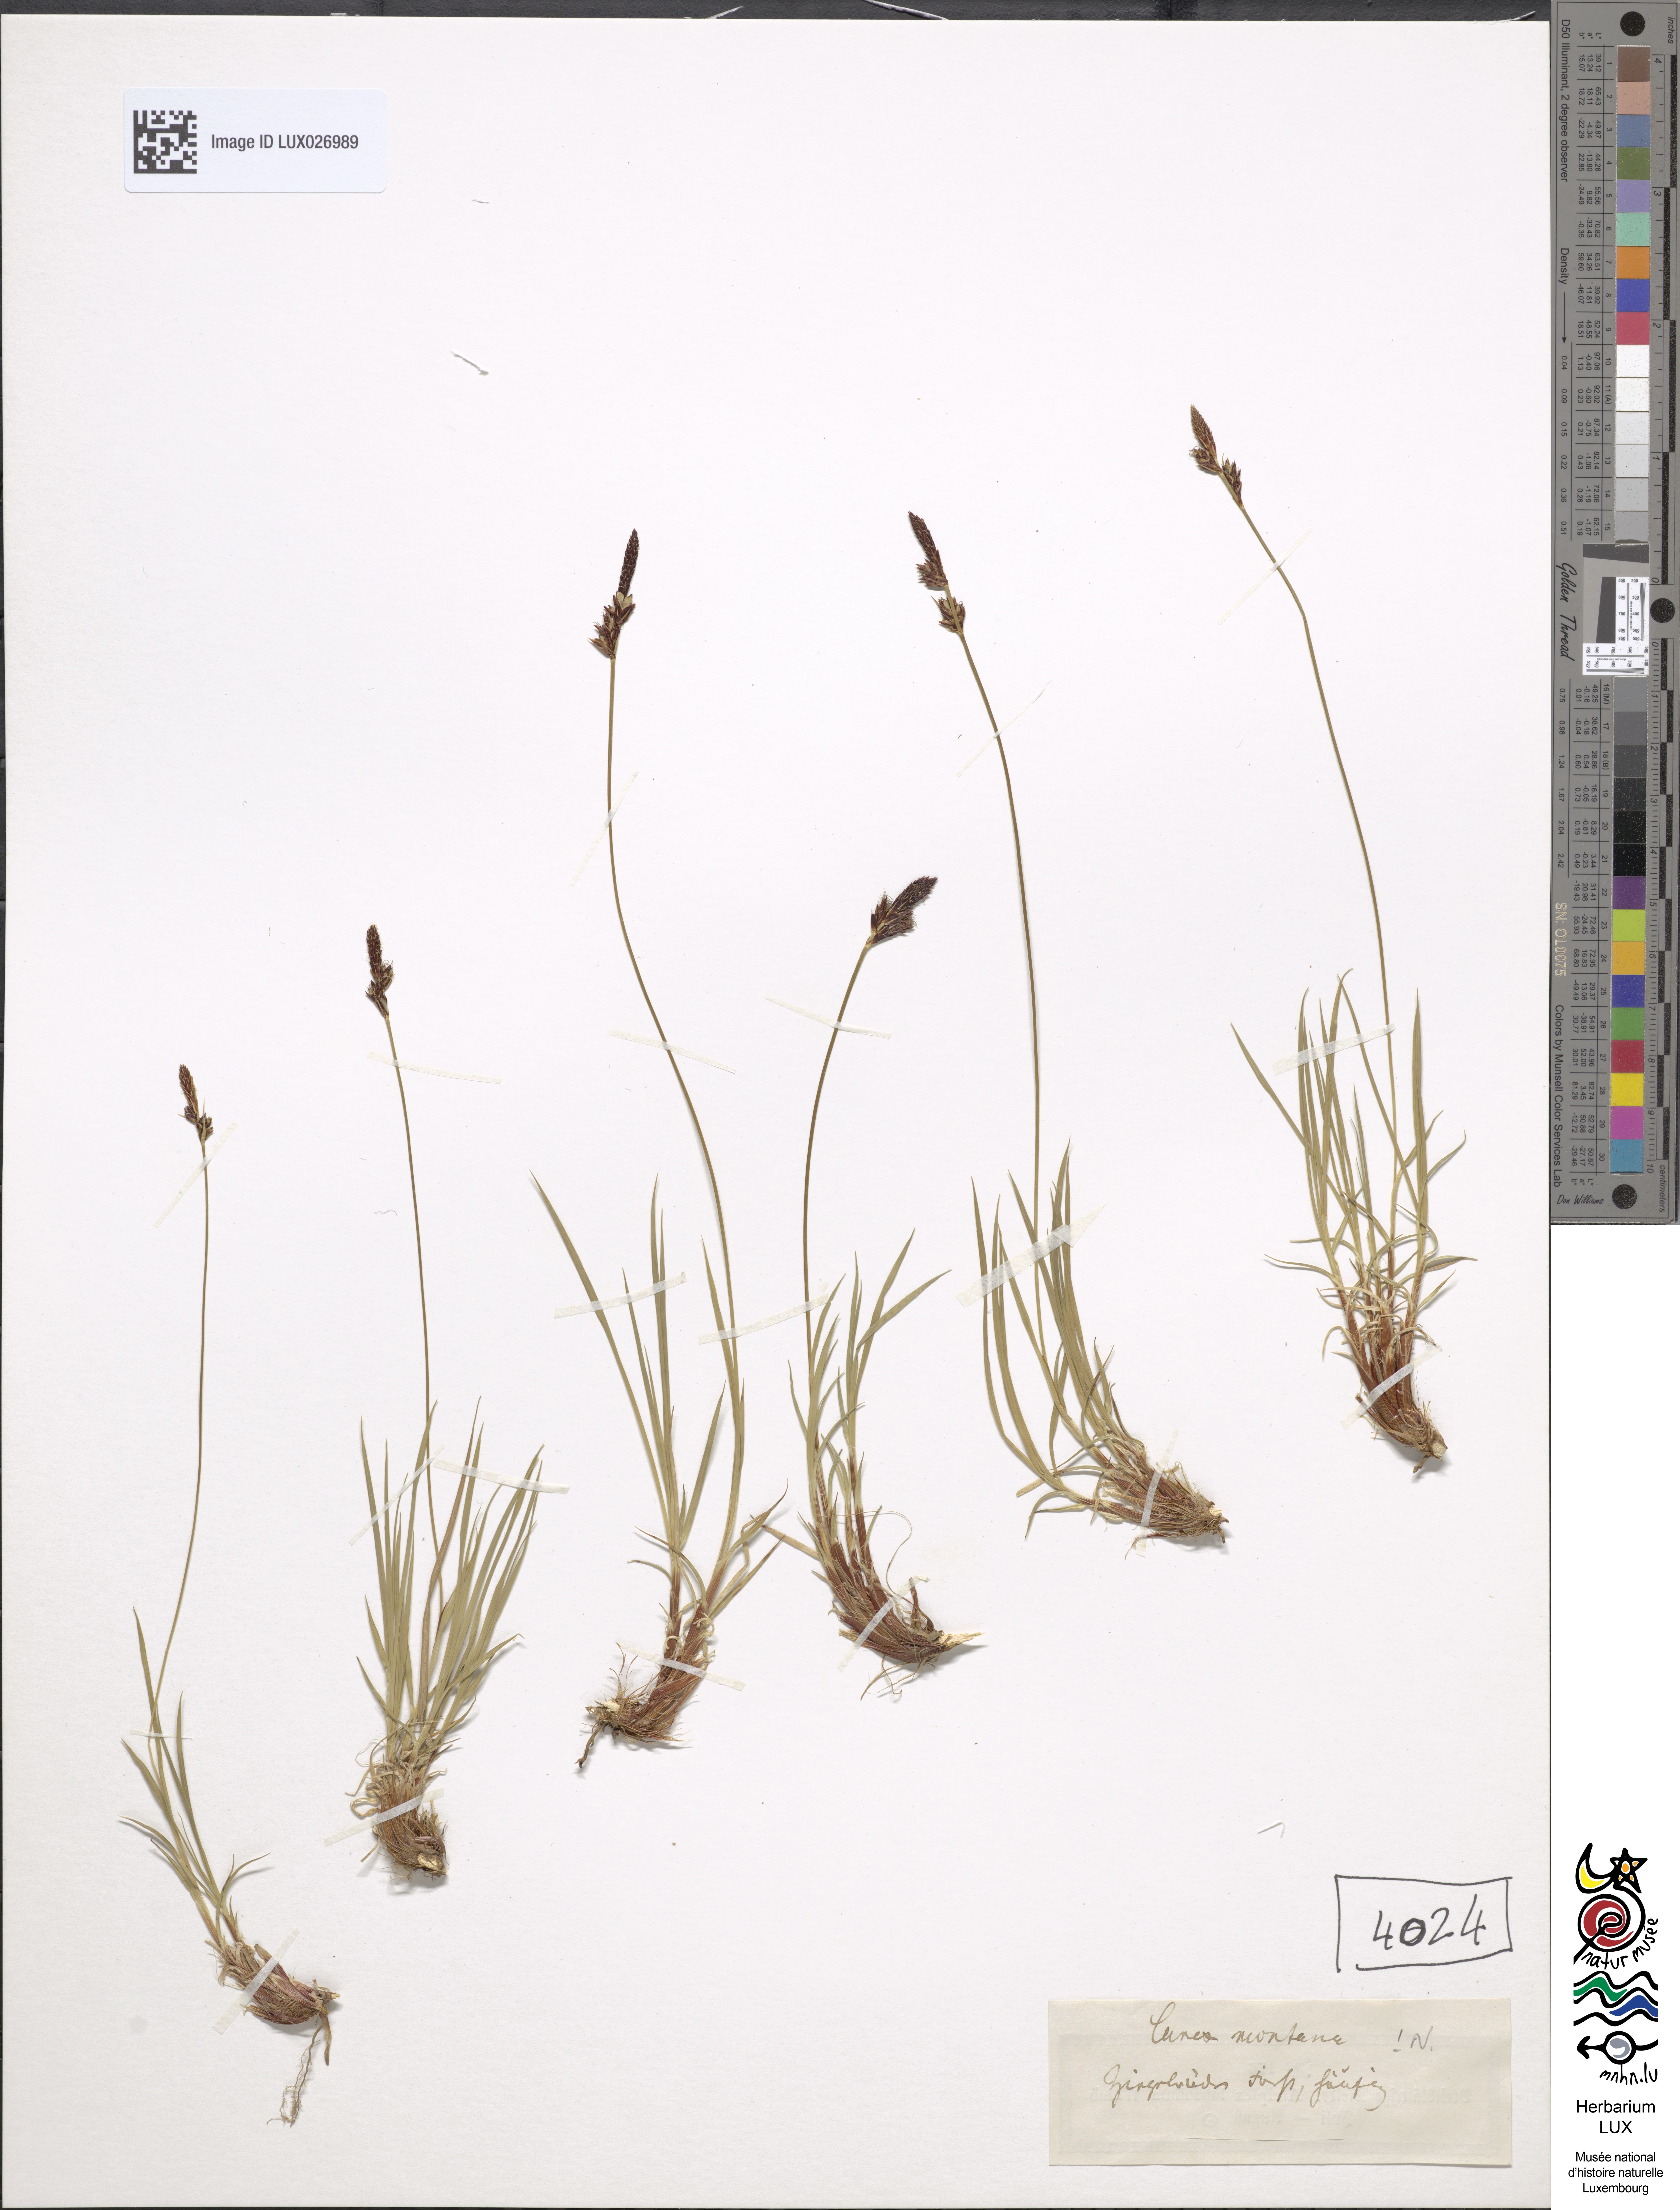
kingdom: Plantae
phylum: Tracheophyta
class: Liliopsida
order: Poales
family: Cyperaceae
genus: Carex
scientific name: Carex montana
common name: Soft-leaved sedge
